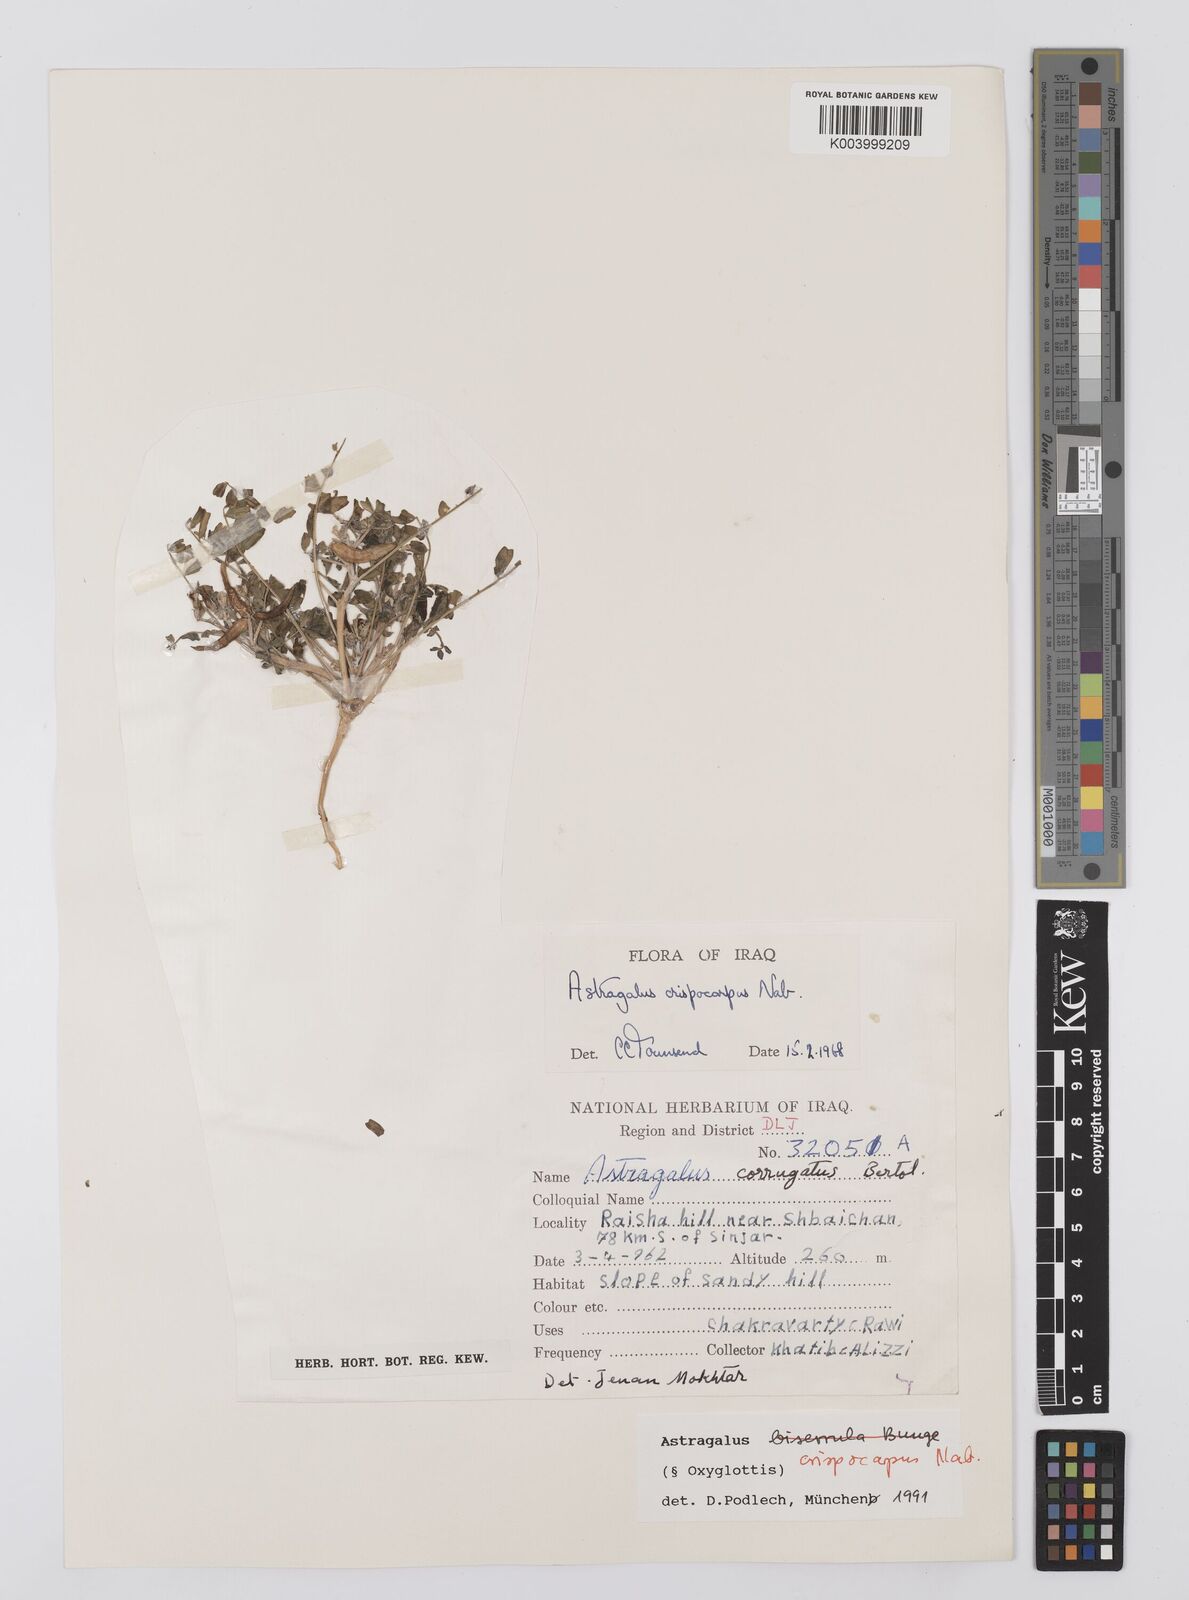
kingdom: Plantae
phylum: Tracheophyta
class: Magnoliopsida
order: Fabales
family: Fabaceae
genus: Astragalus
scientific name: Astragalus crispocarpus
